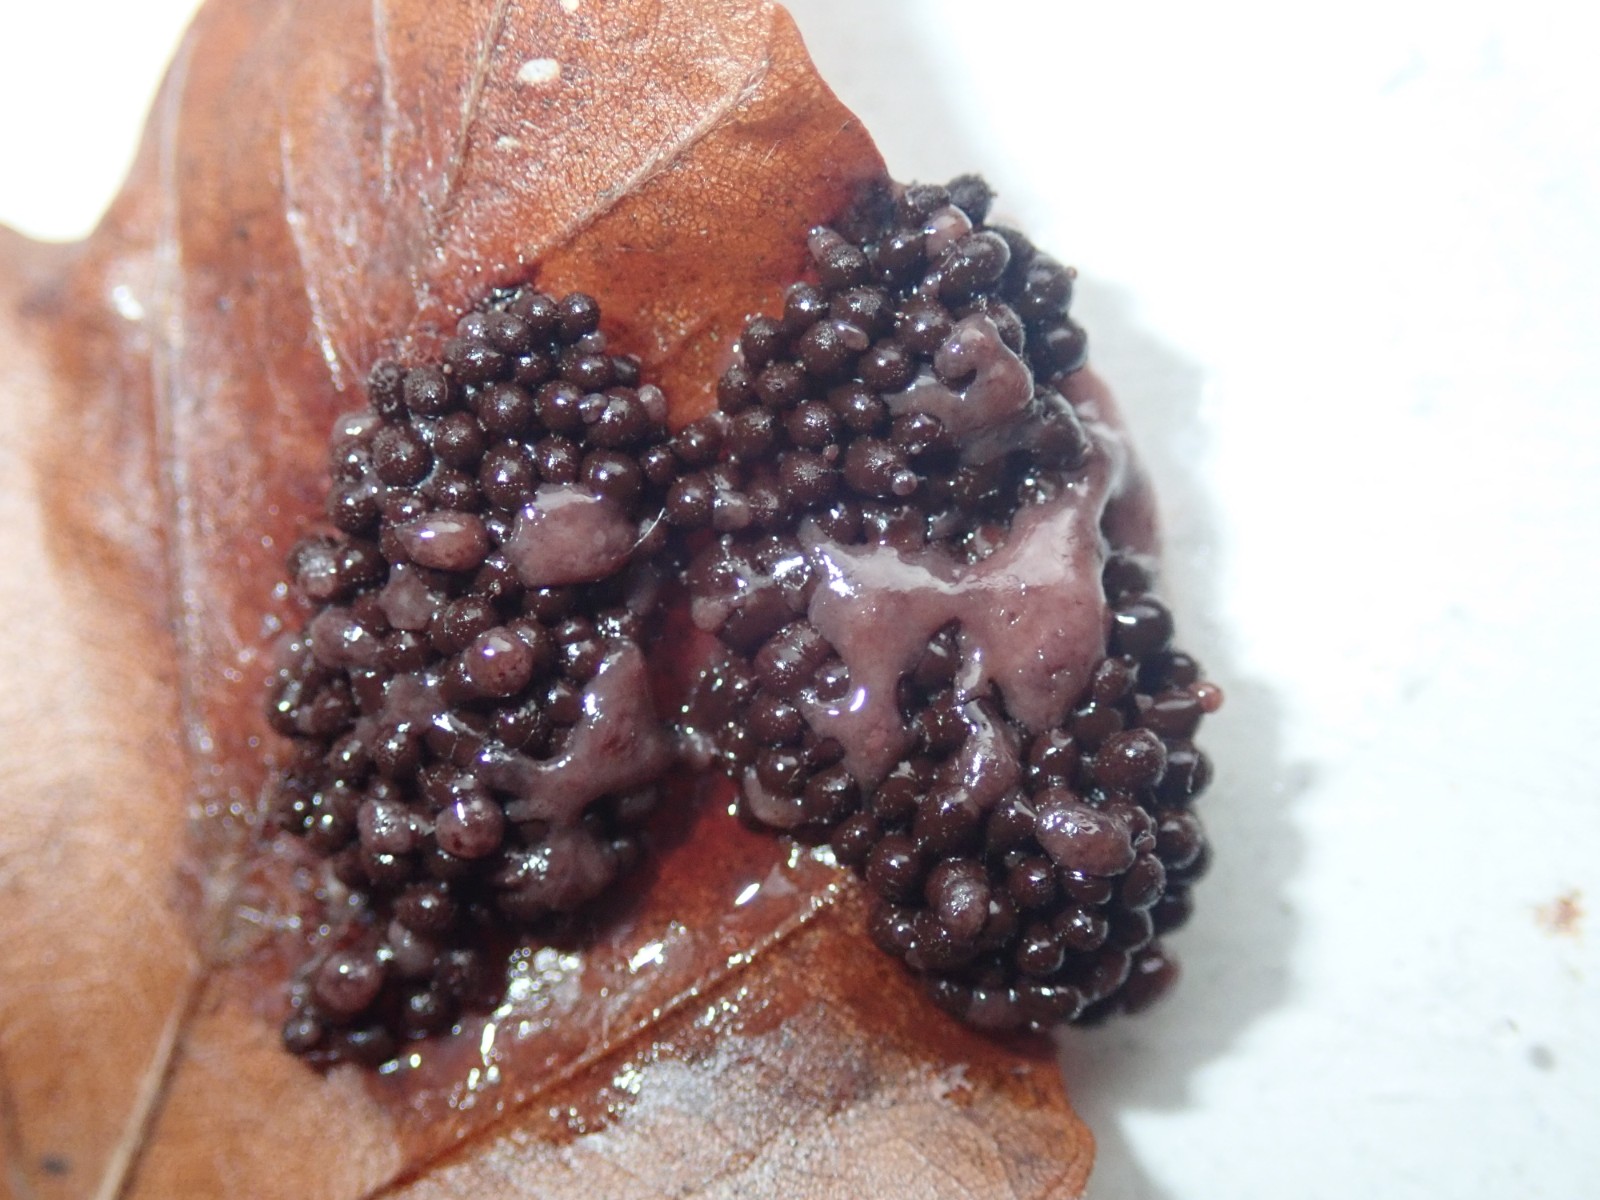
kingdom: Protozoa
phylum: Mycetozoa
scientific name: Mycetozoa
